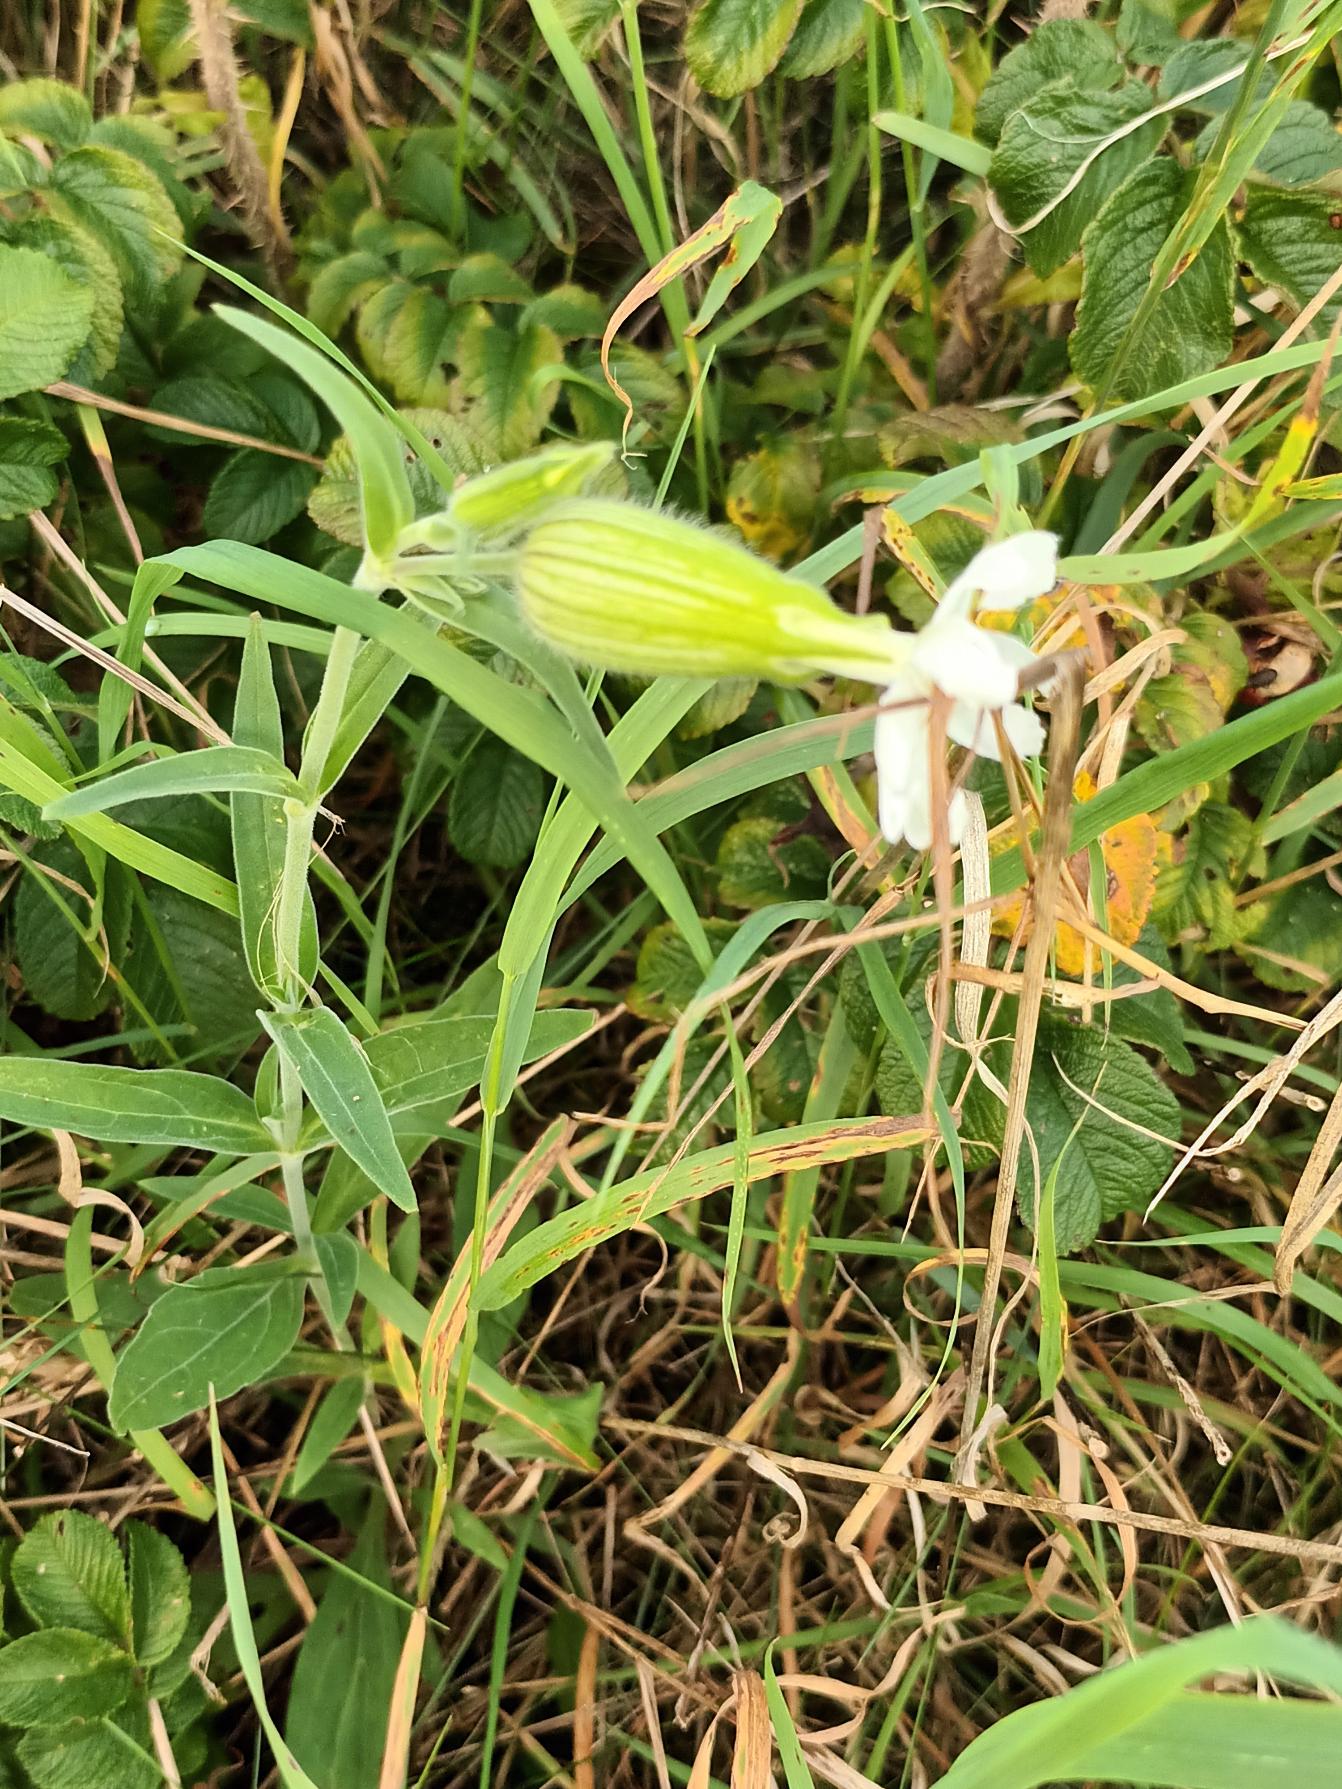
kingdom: Plantae
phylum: Tracheophyta
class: Magnoliopsida
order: Caryophyllales
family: Caryophyllaceae
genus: Silene
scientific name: Silene latifolia
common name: Aftenpragtstjerne
